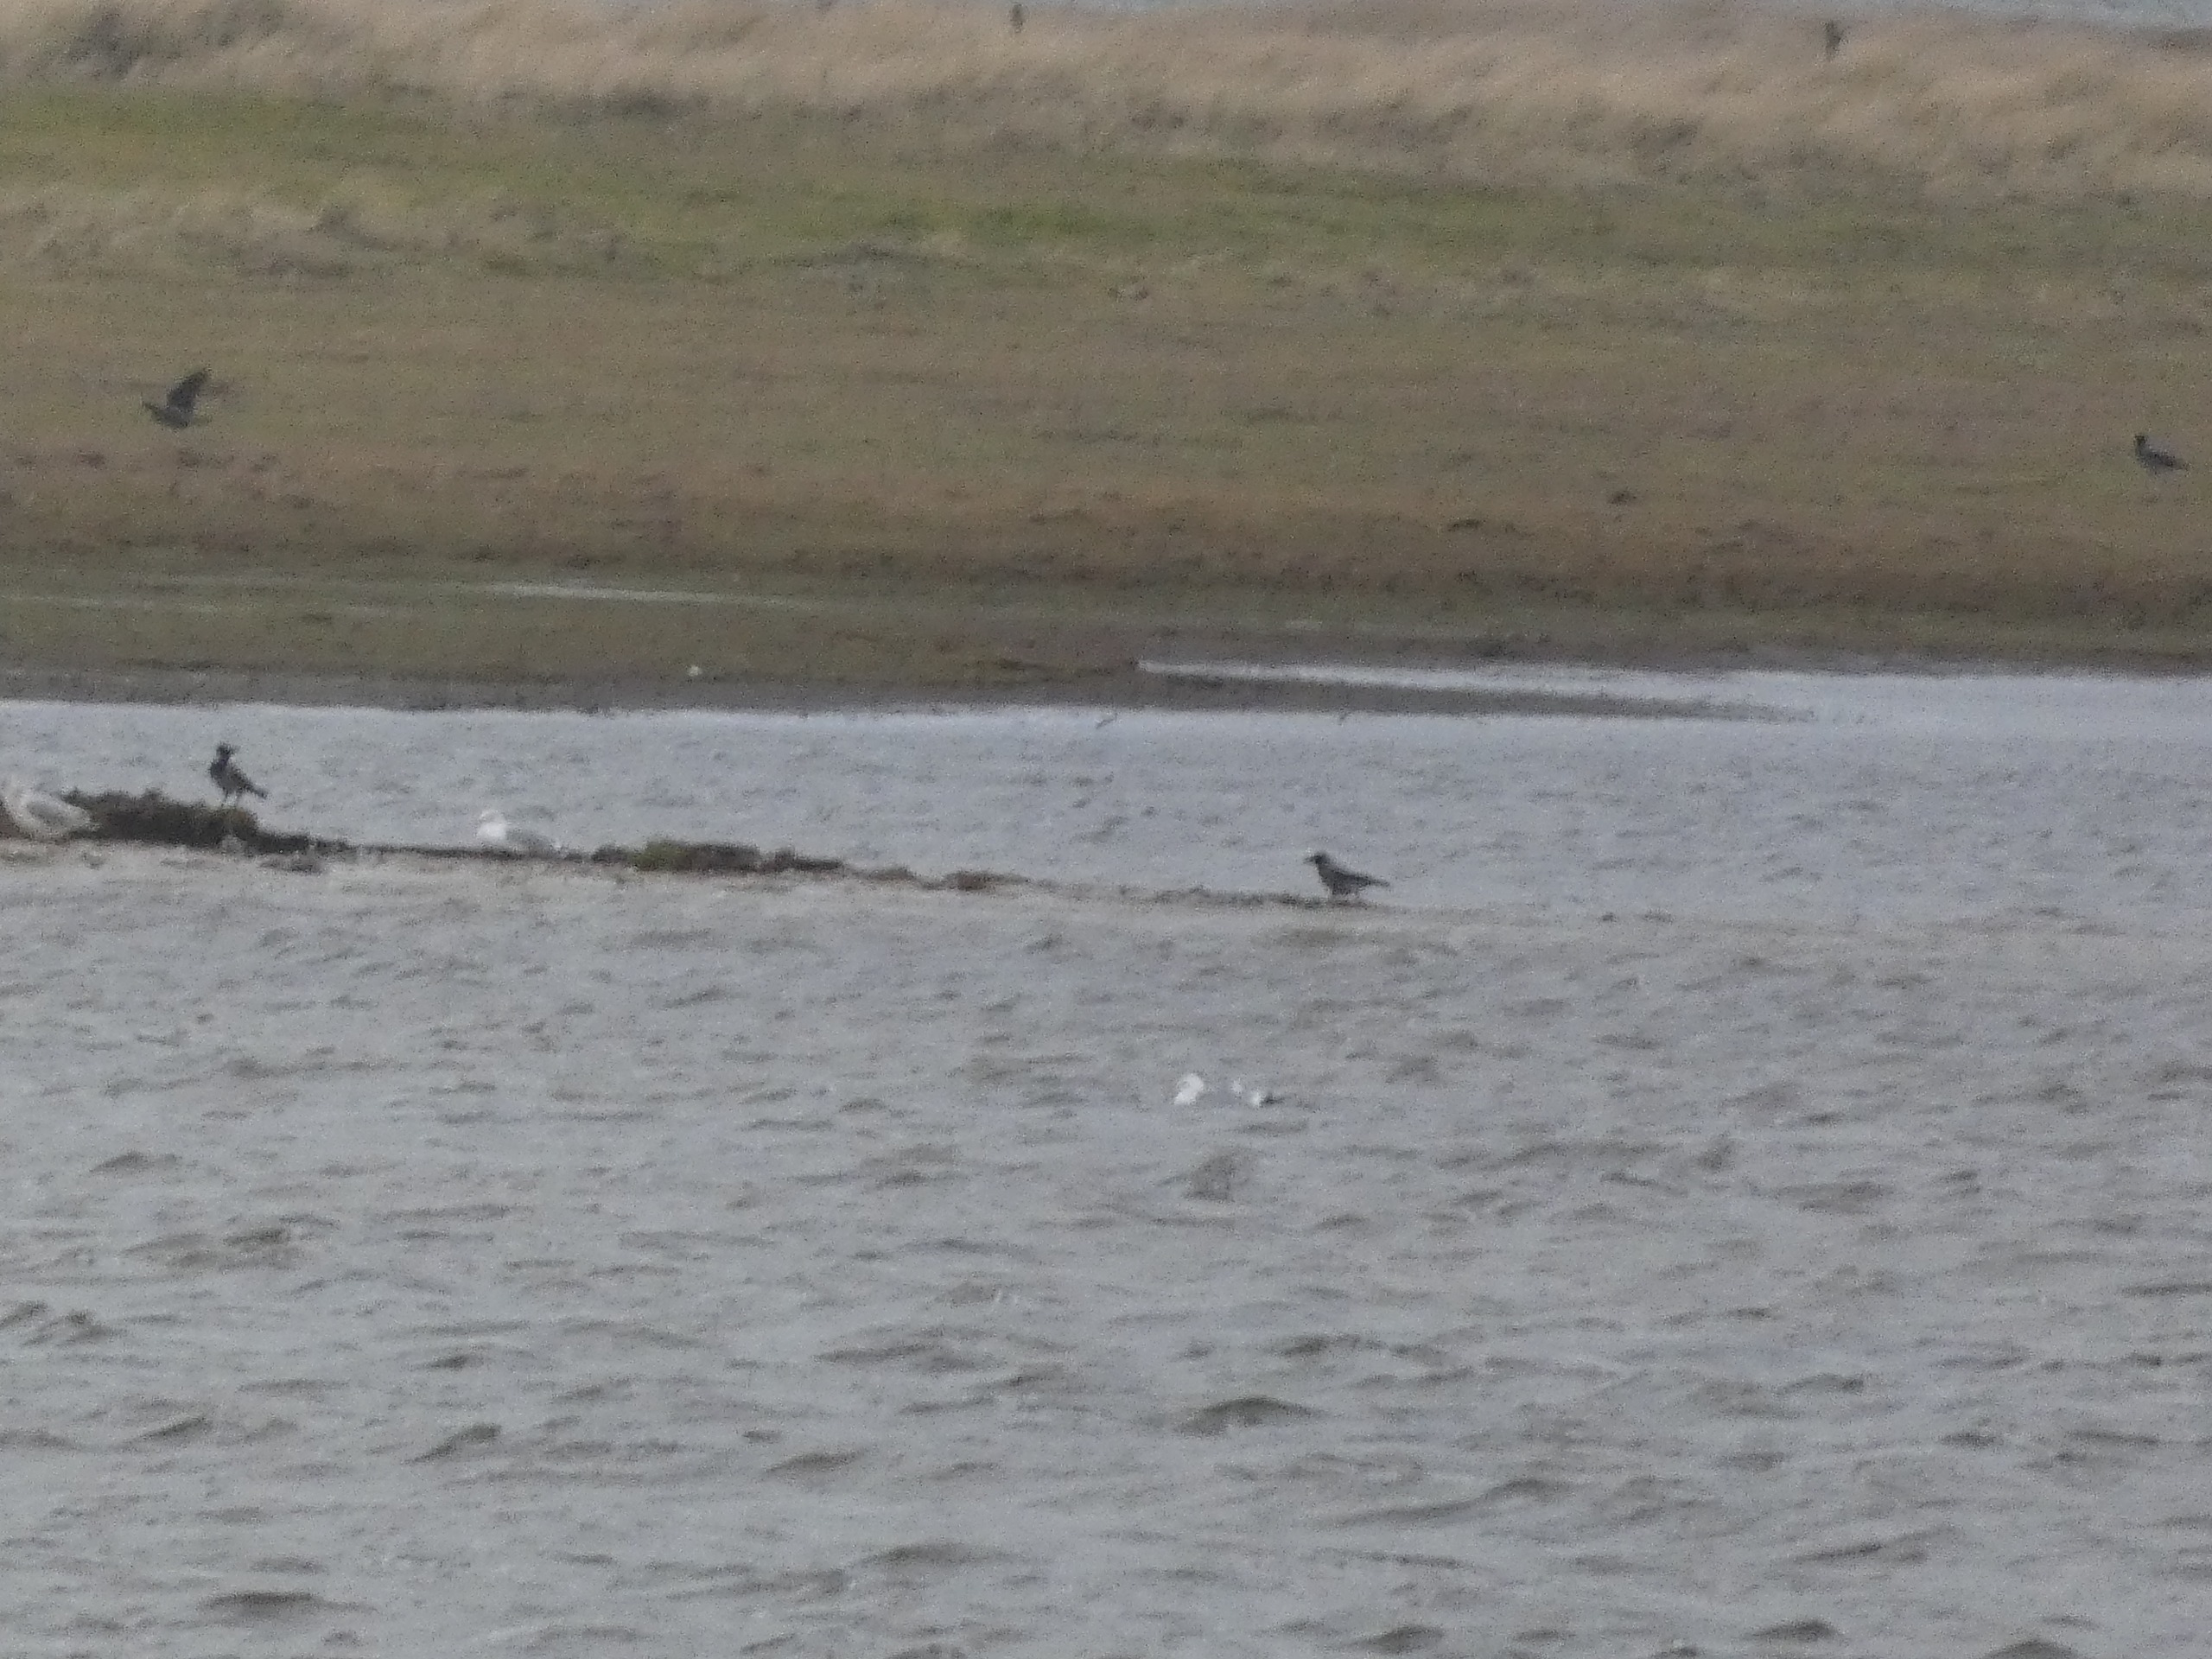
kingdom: Animalia
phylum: Chordata
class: Aves
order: Passeriformes
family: Corvidae
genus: Corvus
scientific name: Corvus cornix
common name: Gråkrage
